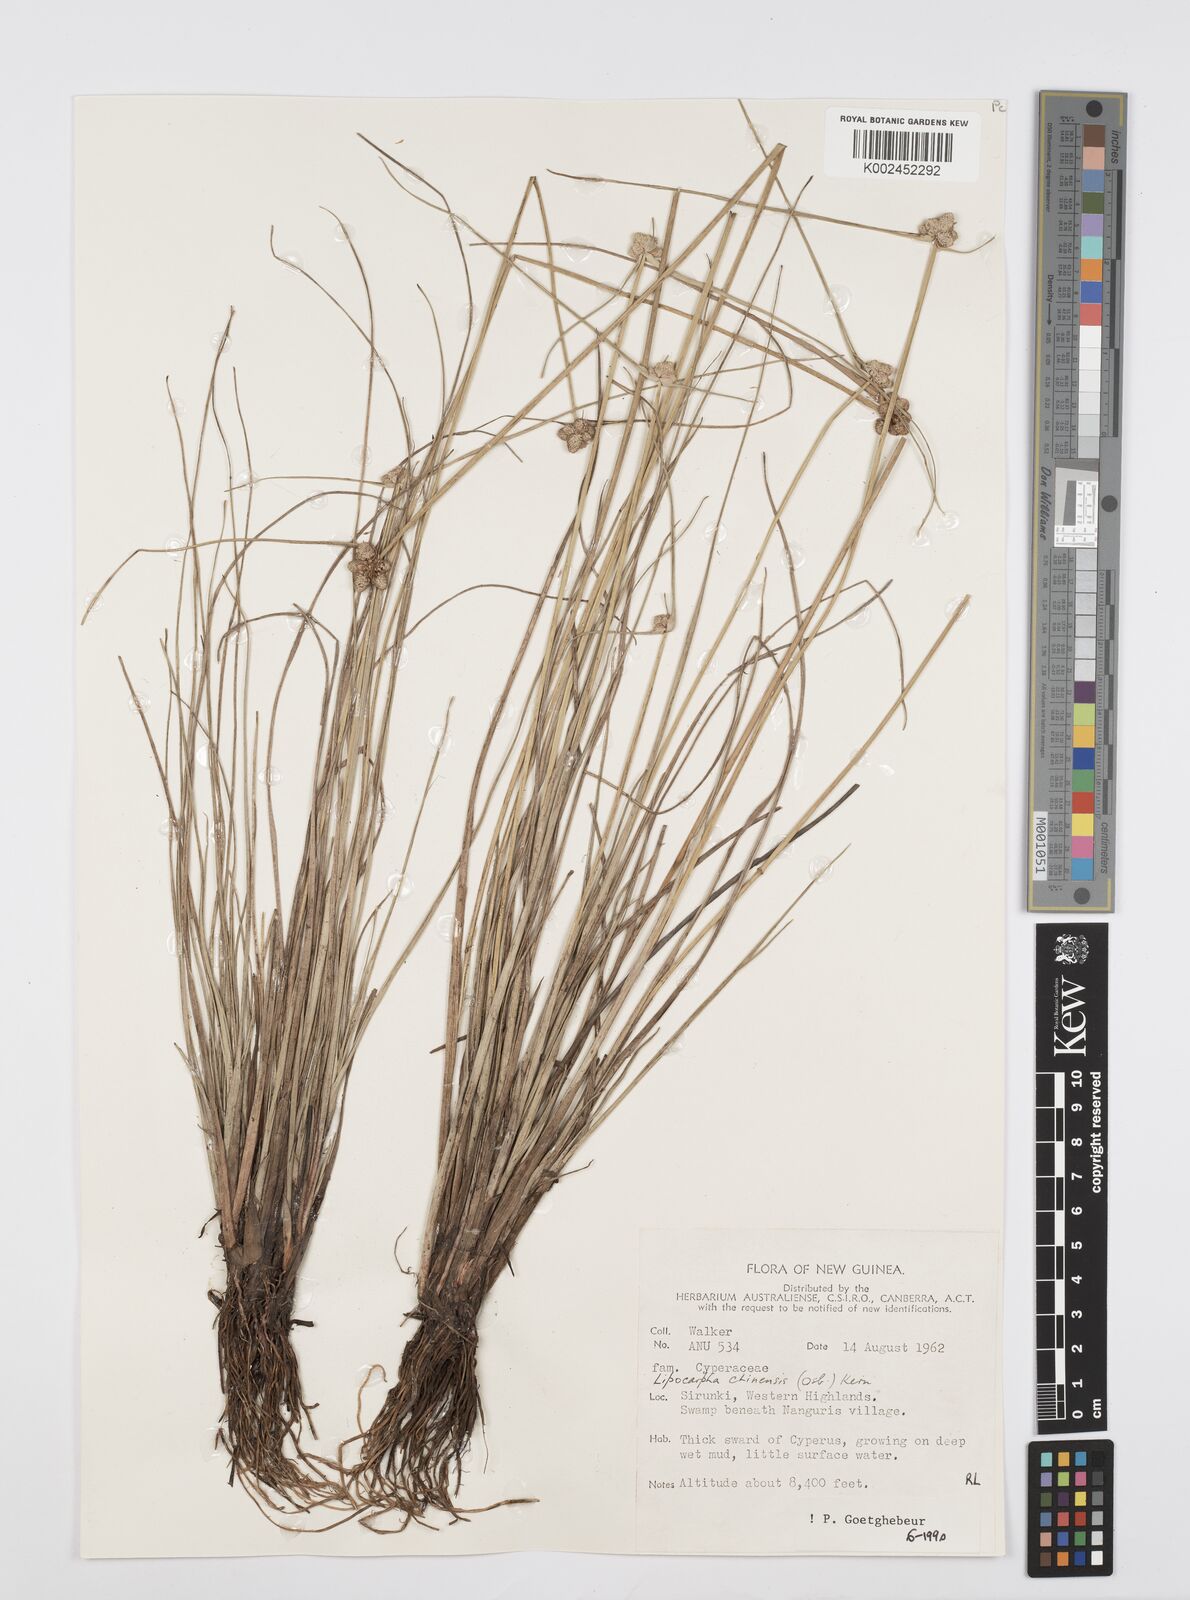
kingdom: Plantae
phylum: Tracheophyta
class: Liliopsida
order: Poales
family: Cyperaceae
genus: Cyperus
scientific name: Cyperus albescens
